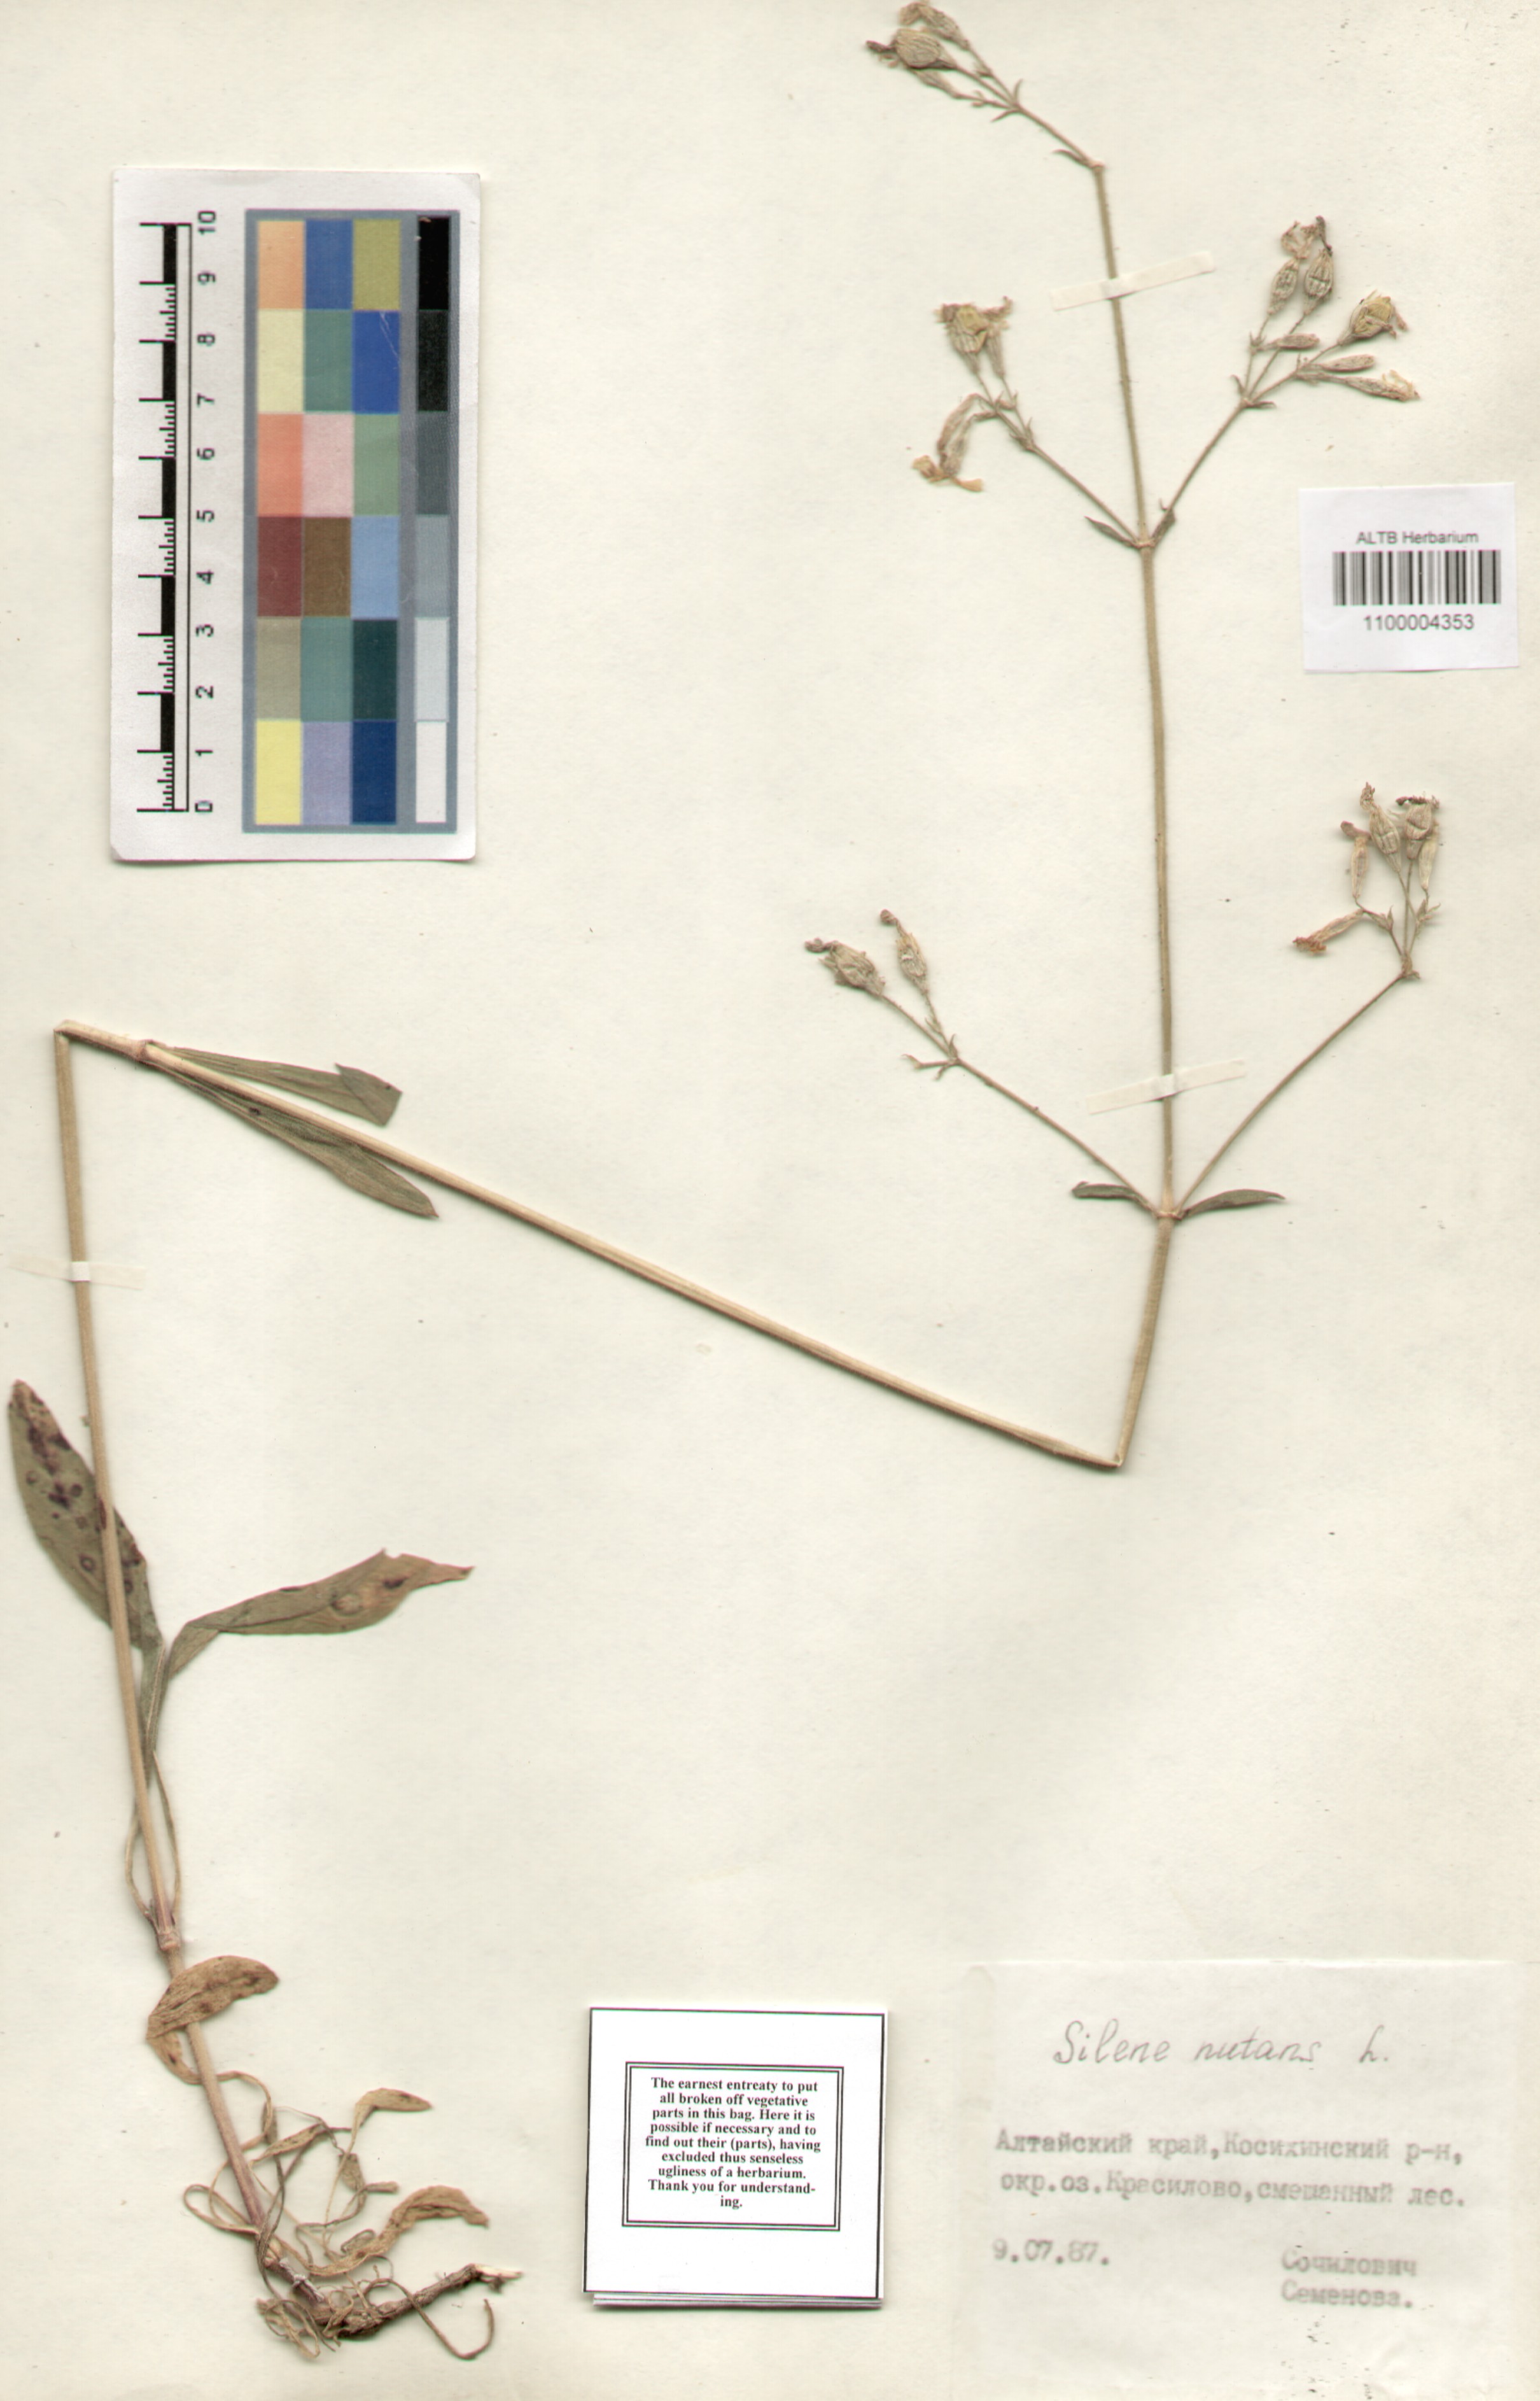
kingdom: Plantae
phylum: Tracheophyta
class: Magnoliopsida
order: Caryophyllales
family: Caryophyllaceae
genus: Silene
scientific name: Silene nutans
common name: Nottingham catchfly
